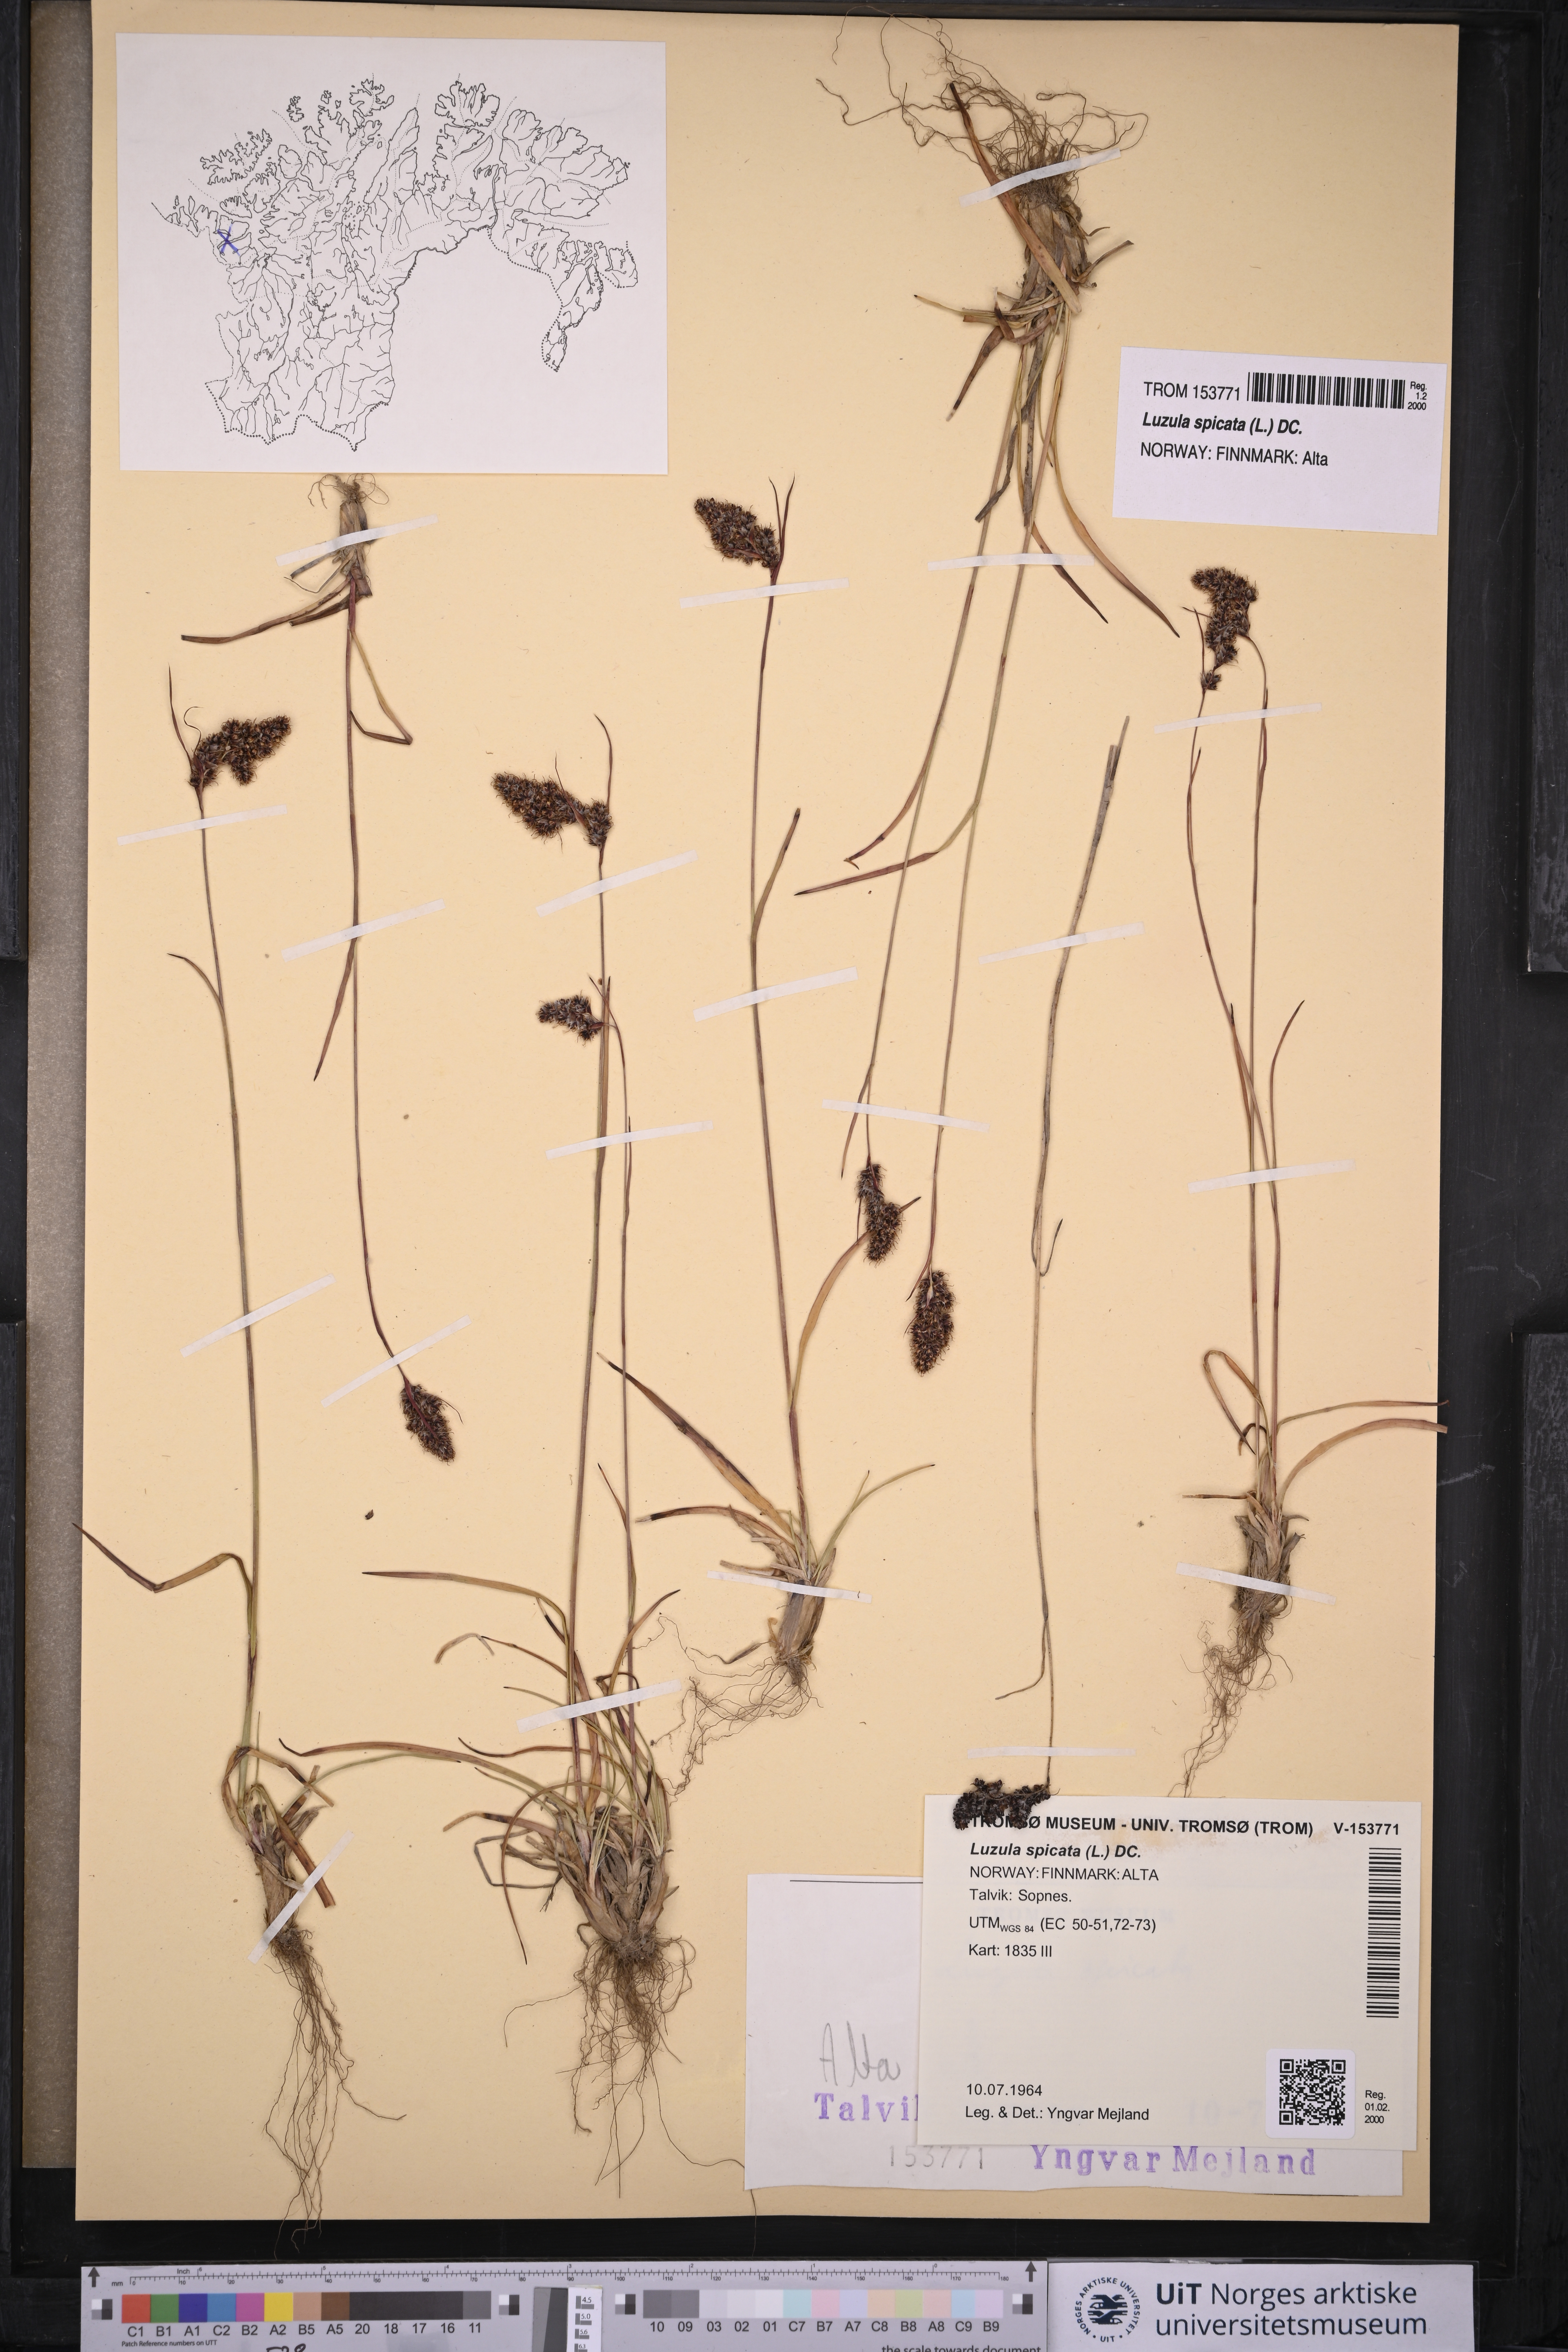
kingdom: Plantae
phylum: Tracheophyta
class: Liliopsida
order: Poales
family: Juncaceae
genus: Luzula
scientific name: Luzula spicata
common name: Spiked wood-rush
